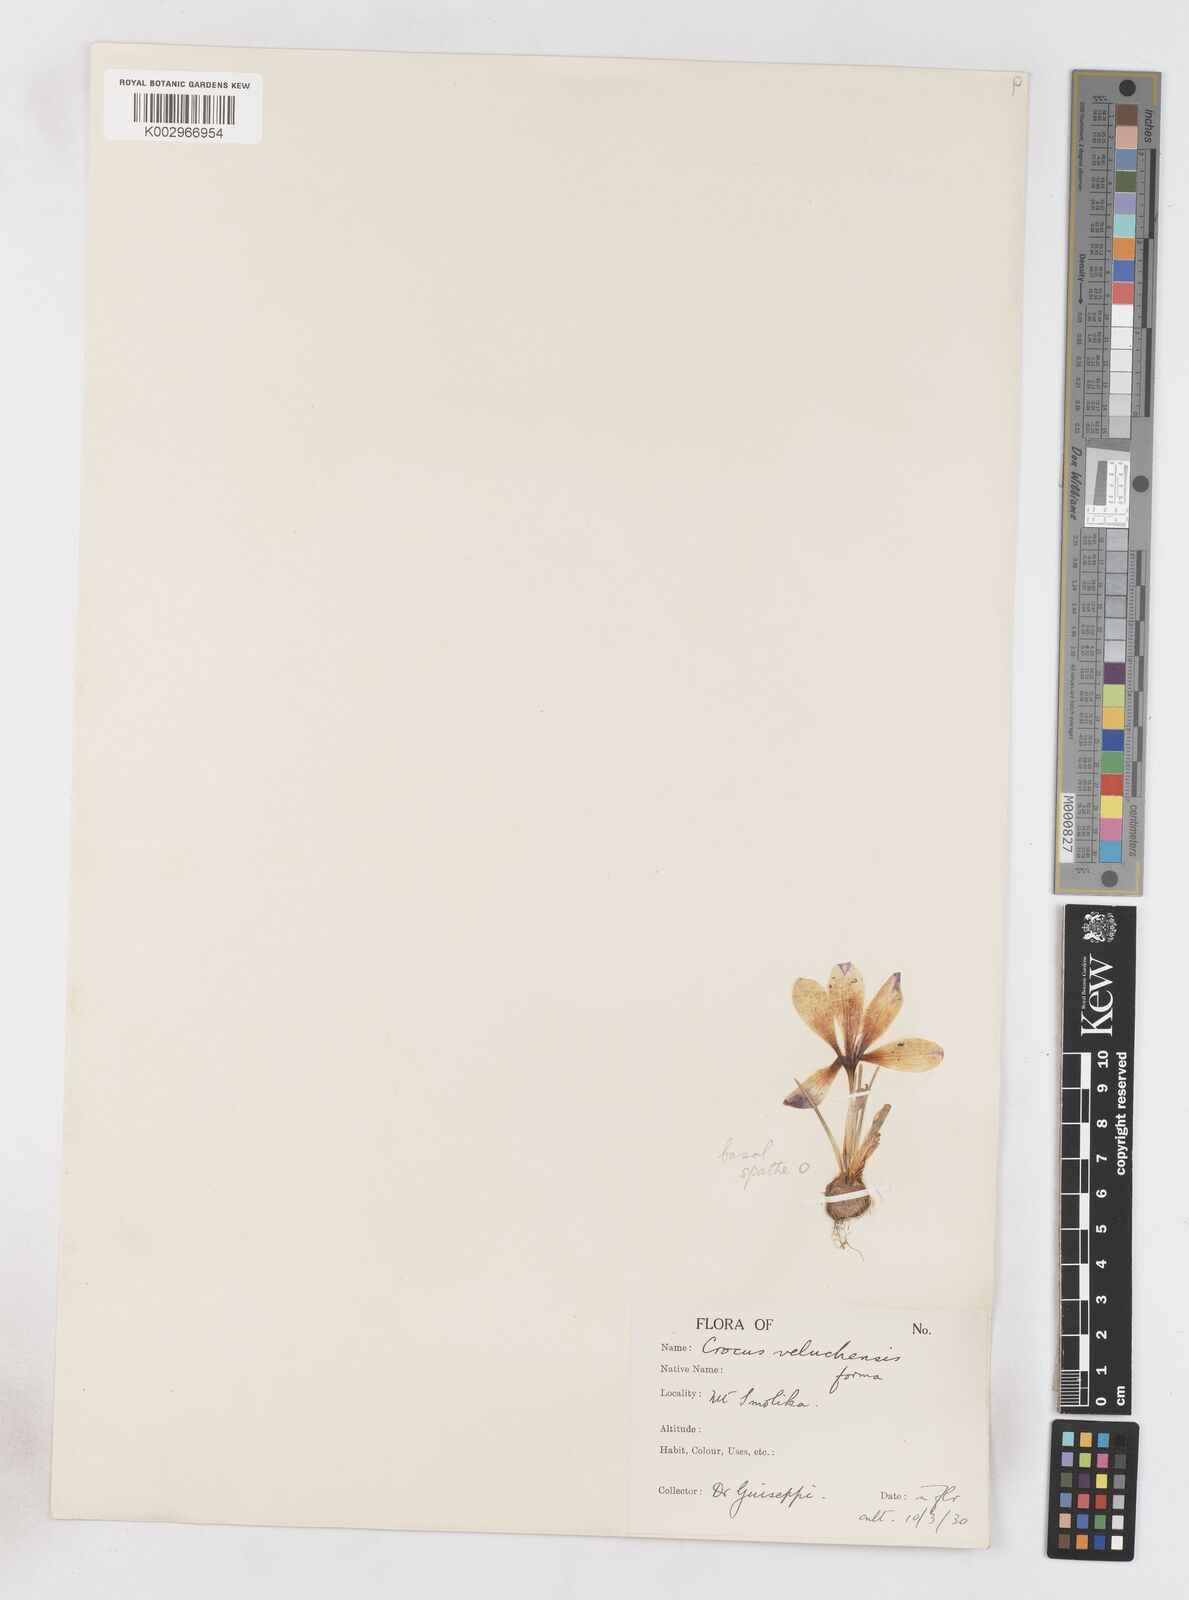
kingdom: Plantae
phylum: Tracheophyta
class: Liliopsida
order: Asparagales
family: Iridaceae
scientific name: Iridaceae
